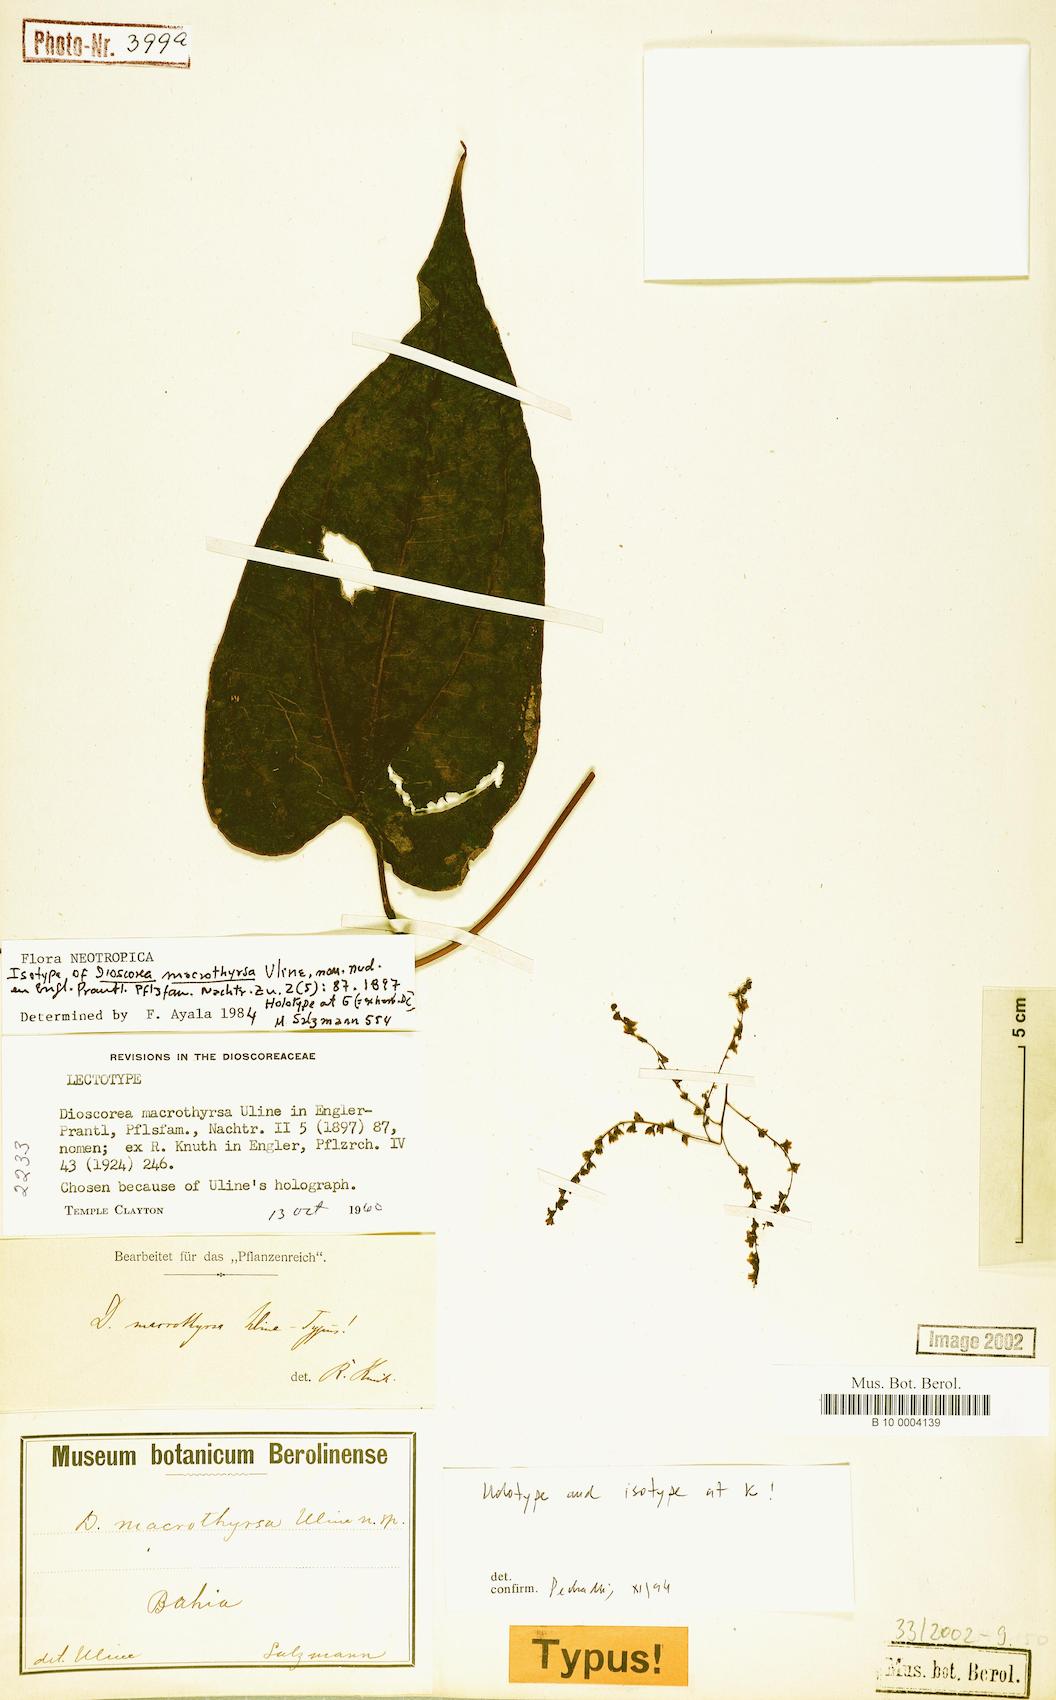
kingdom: Plantae
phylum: Tracheophyta
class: Liliopsida
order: Dioscoreales
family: Dioscoreaceae
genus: Dioscorea
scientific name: Dioscorea macrothyrsa
